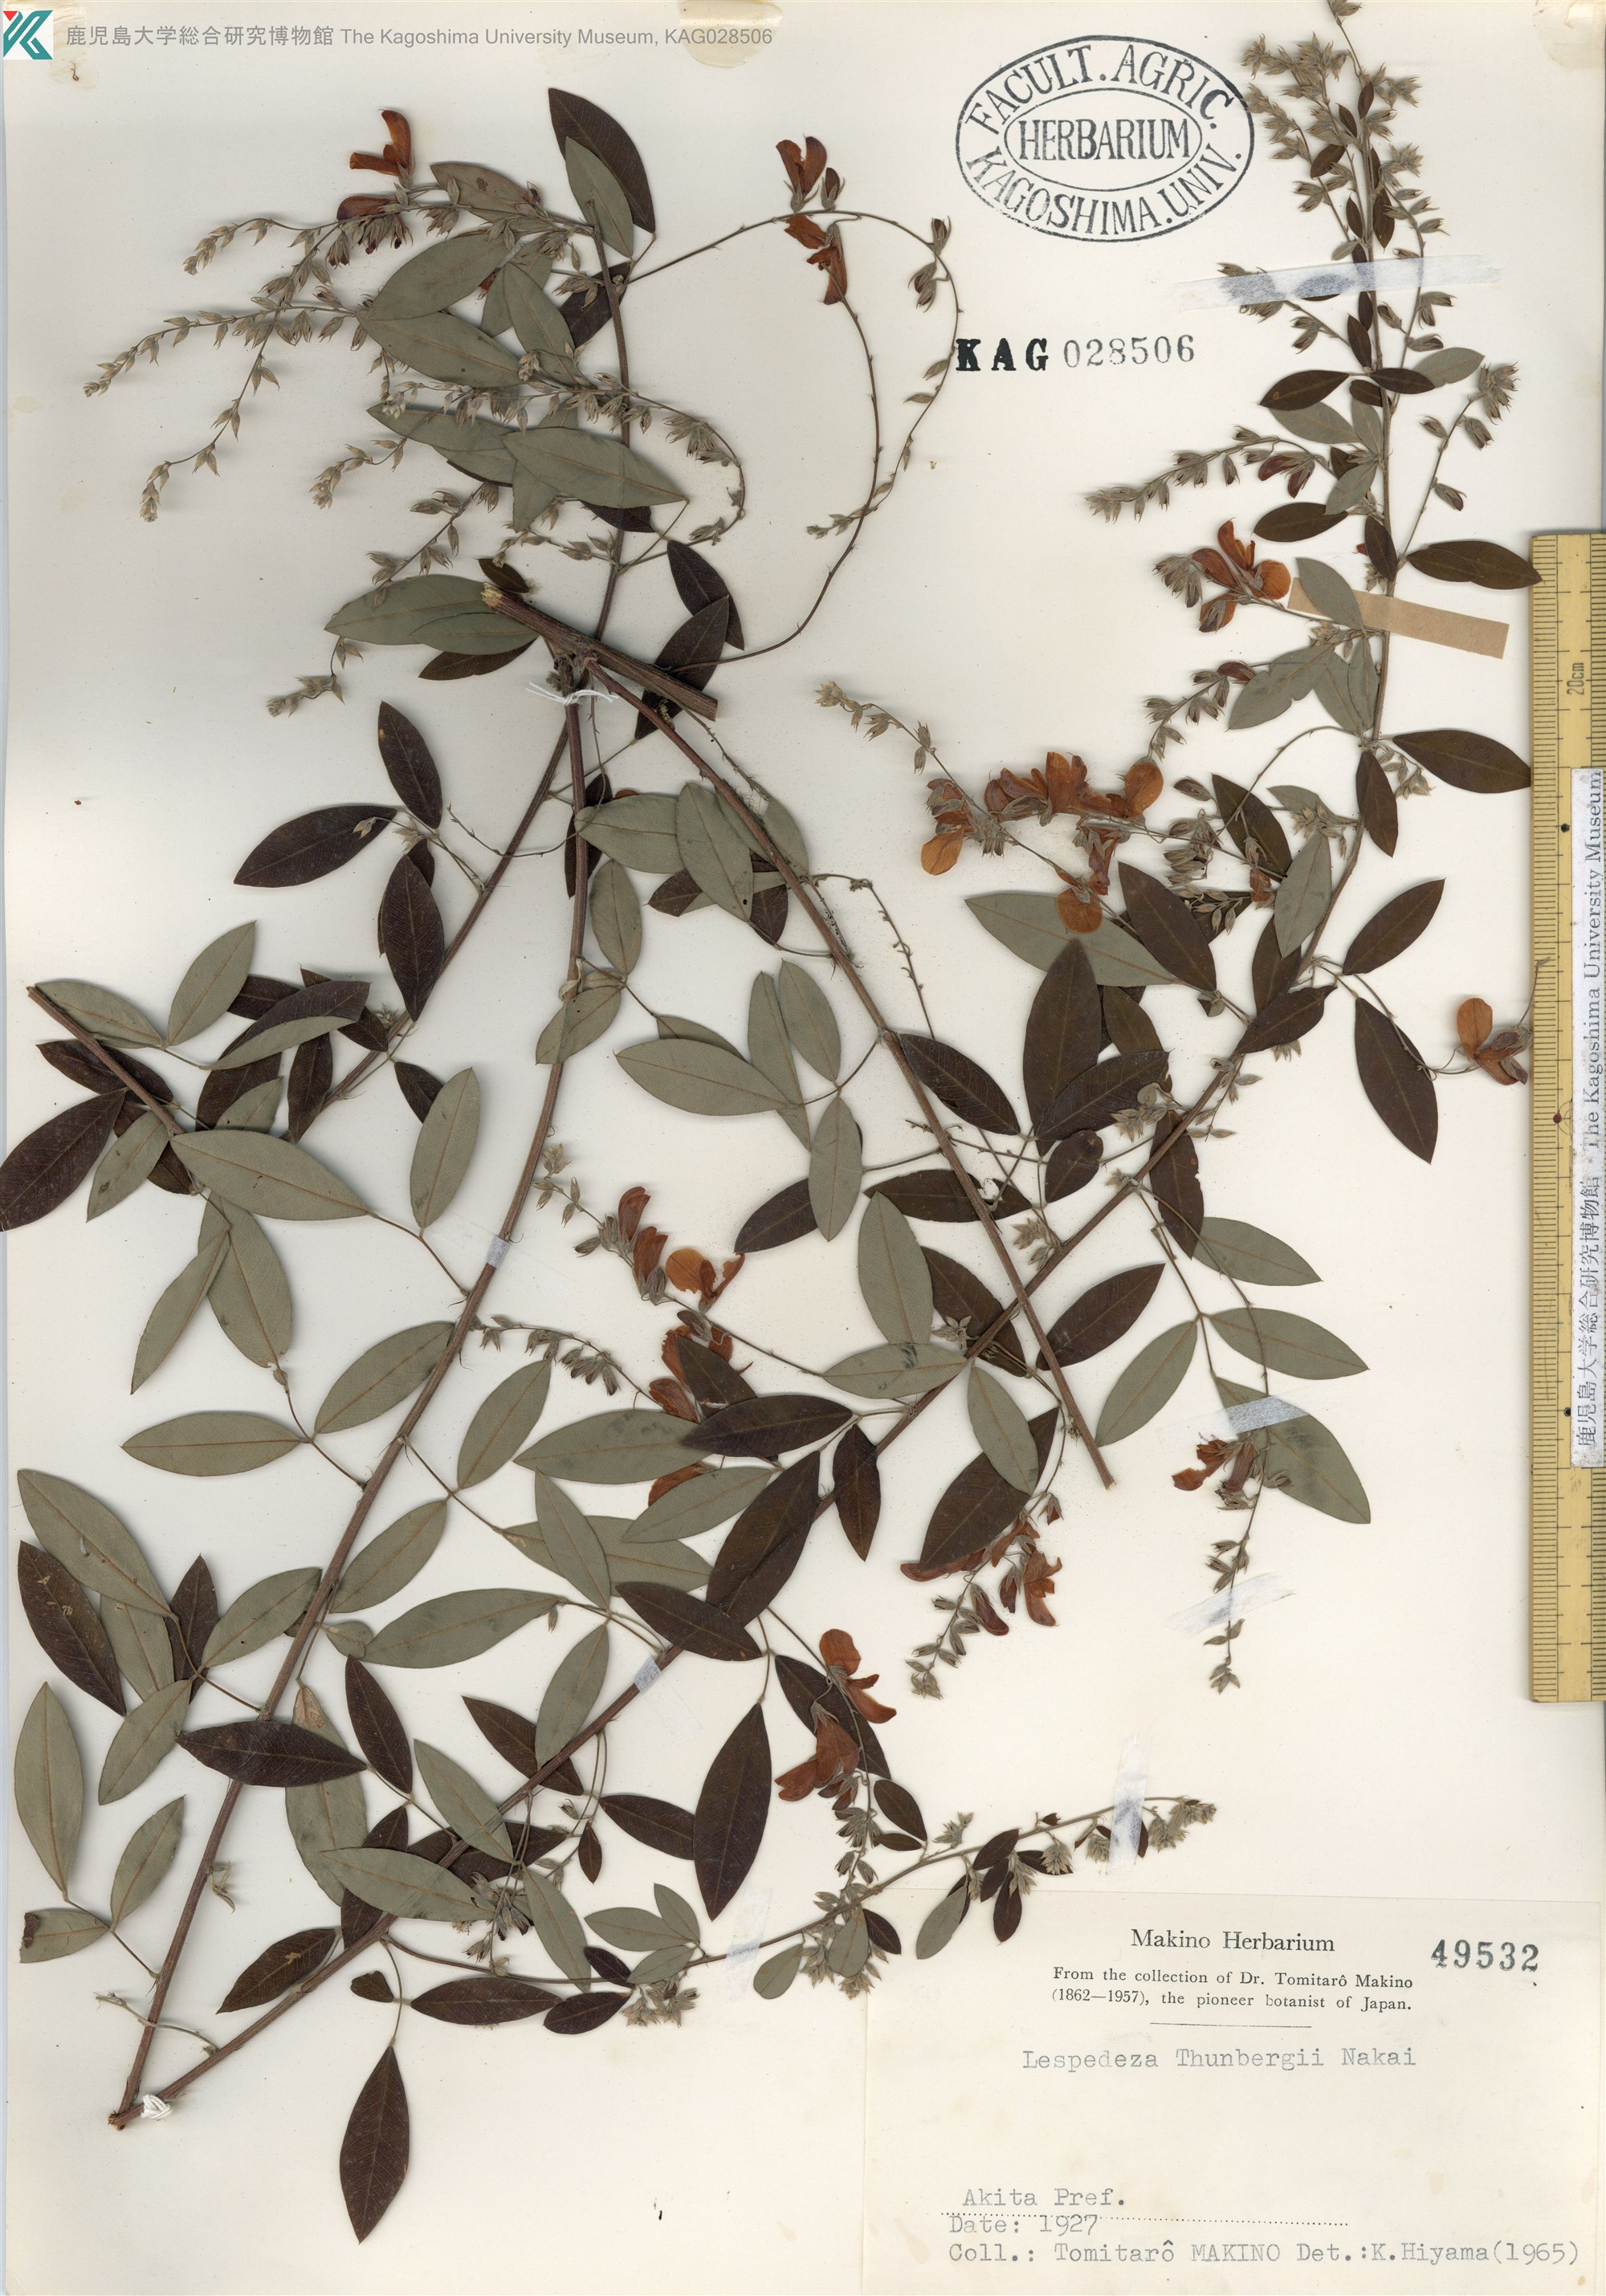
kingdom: Plantae
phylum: Tracheophyta
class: Magnoliopsida
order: Fabales
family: Fabaceae
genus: Lespedeza
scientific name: Lespedeza thunbergii
